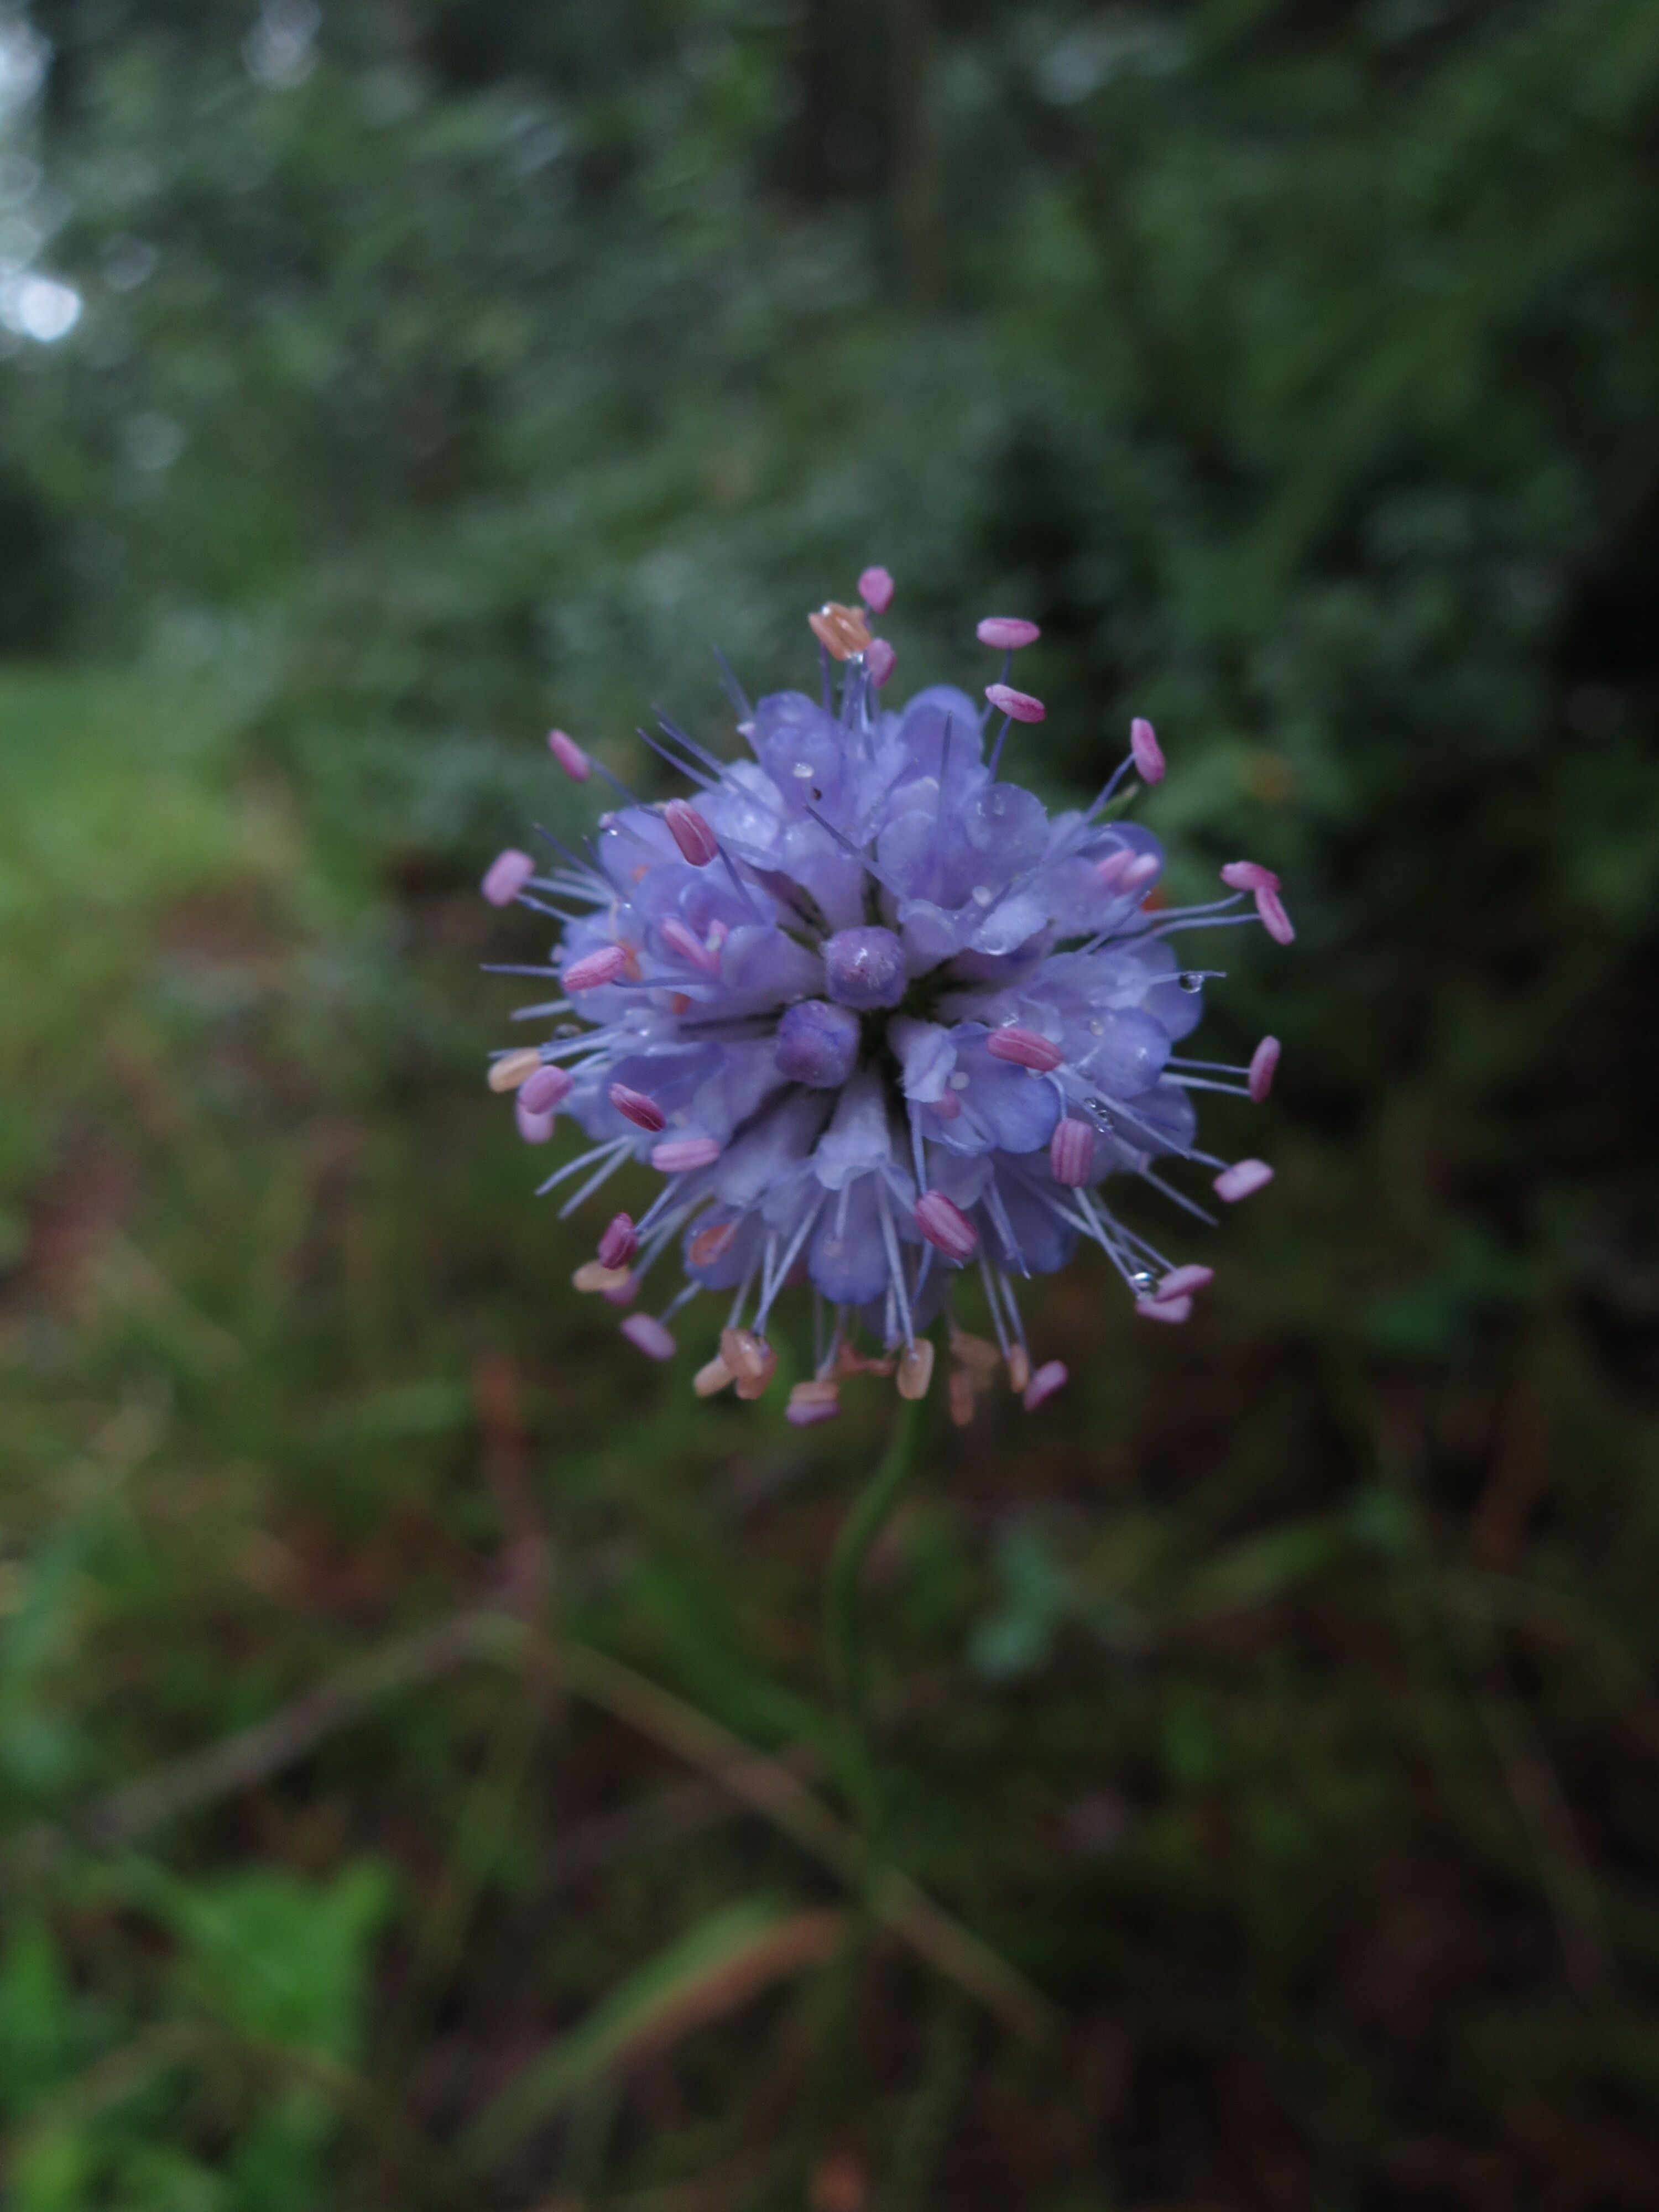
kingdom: Plantae
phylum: Tracheophyta
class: Magnoliopsida
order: Dipsacales
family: Caprifoliaceae
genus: Succisa
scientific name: Succisa pratensis
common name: Devil's-bit
